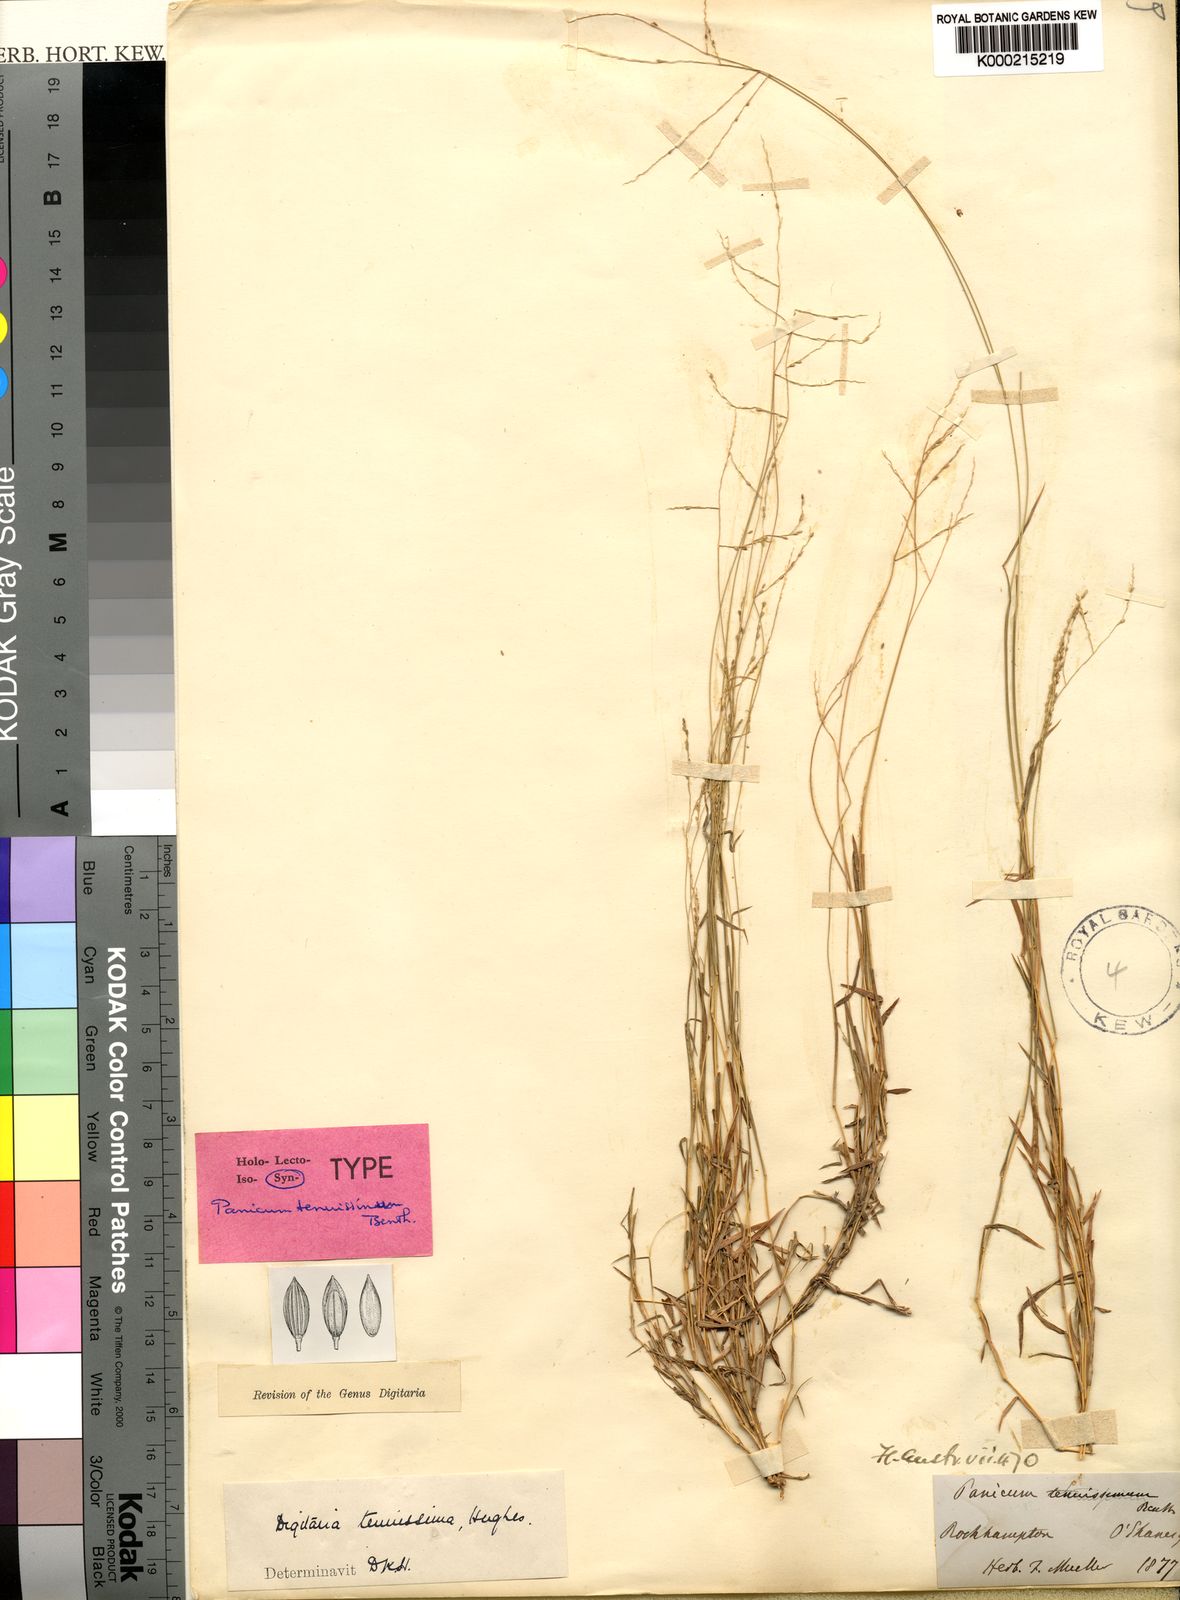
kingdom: Plantae
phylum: Tracheophyta
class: Liliopsida
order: Poales
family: Poaceae
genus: Digitaria
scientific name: Digitaria ramularis
